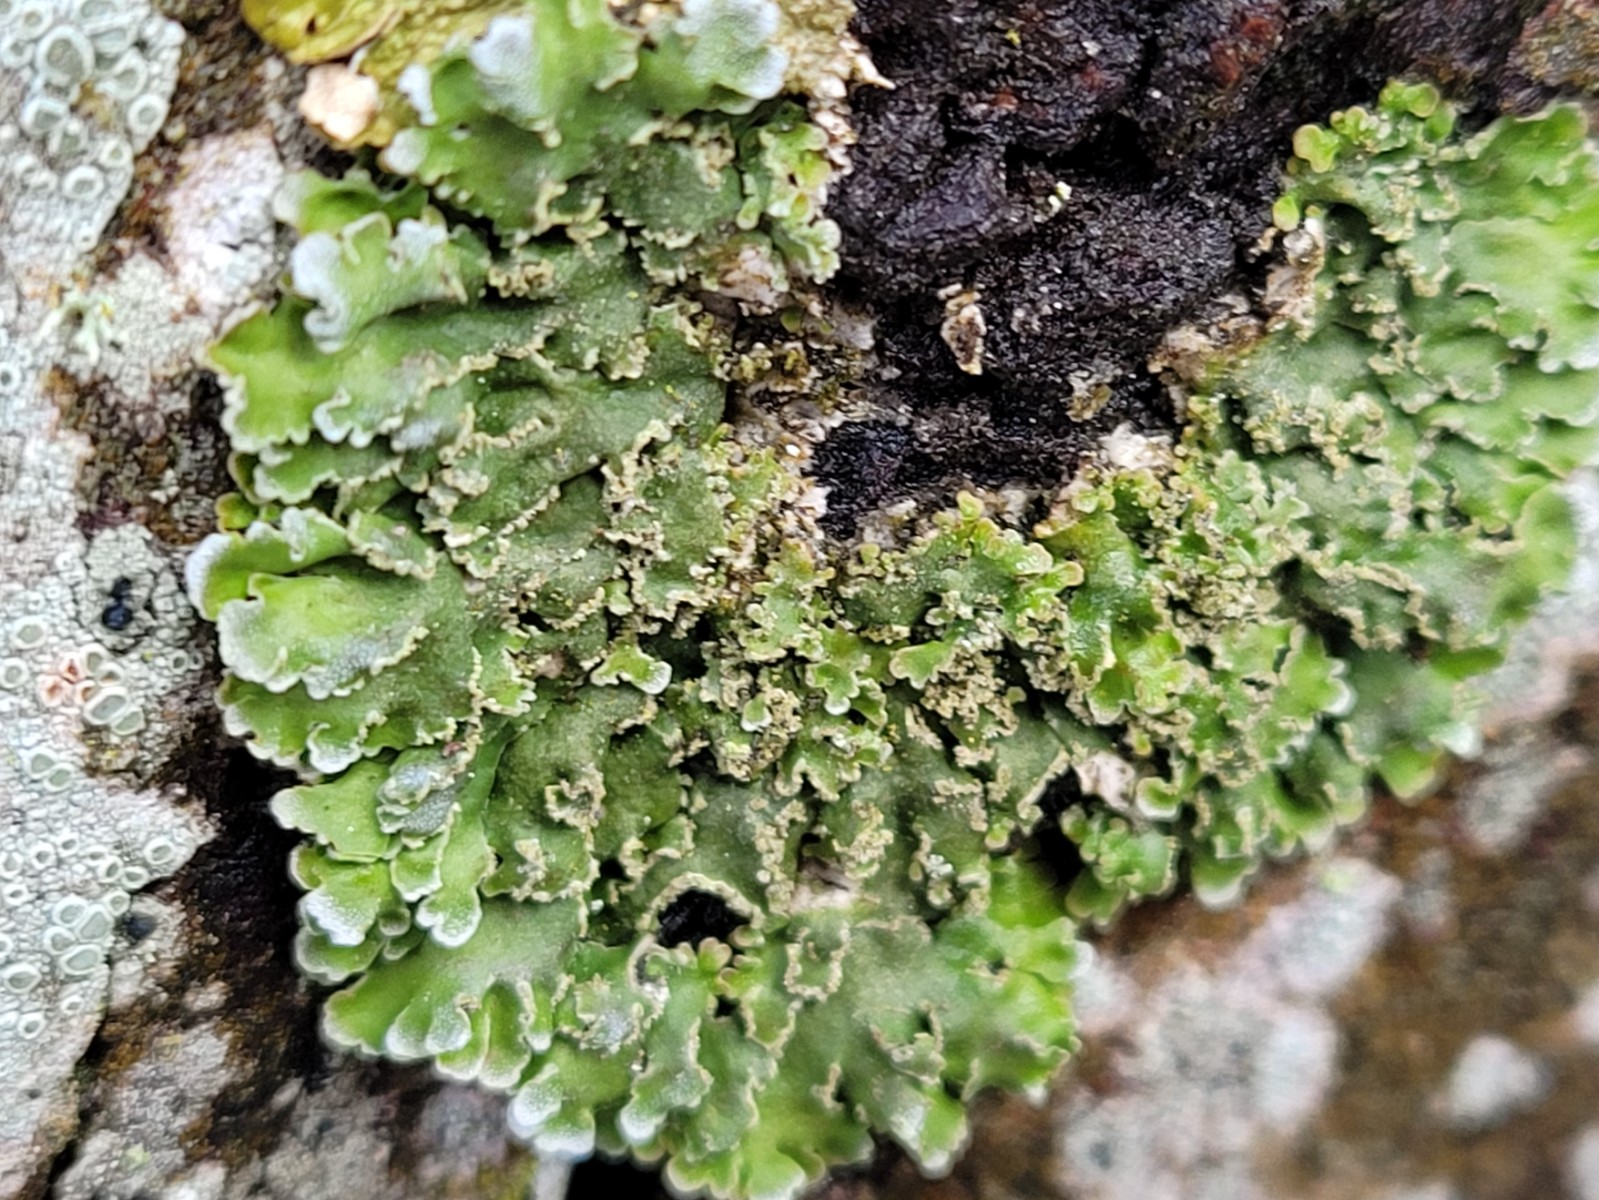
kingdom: Fungi
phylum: Ascomycota
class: Lecanoromycetes
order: Caliciales
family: Physciaceae
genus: Physconia
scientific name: Physconia enteroxantha
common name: grynet dugrosetlav
